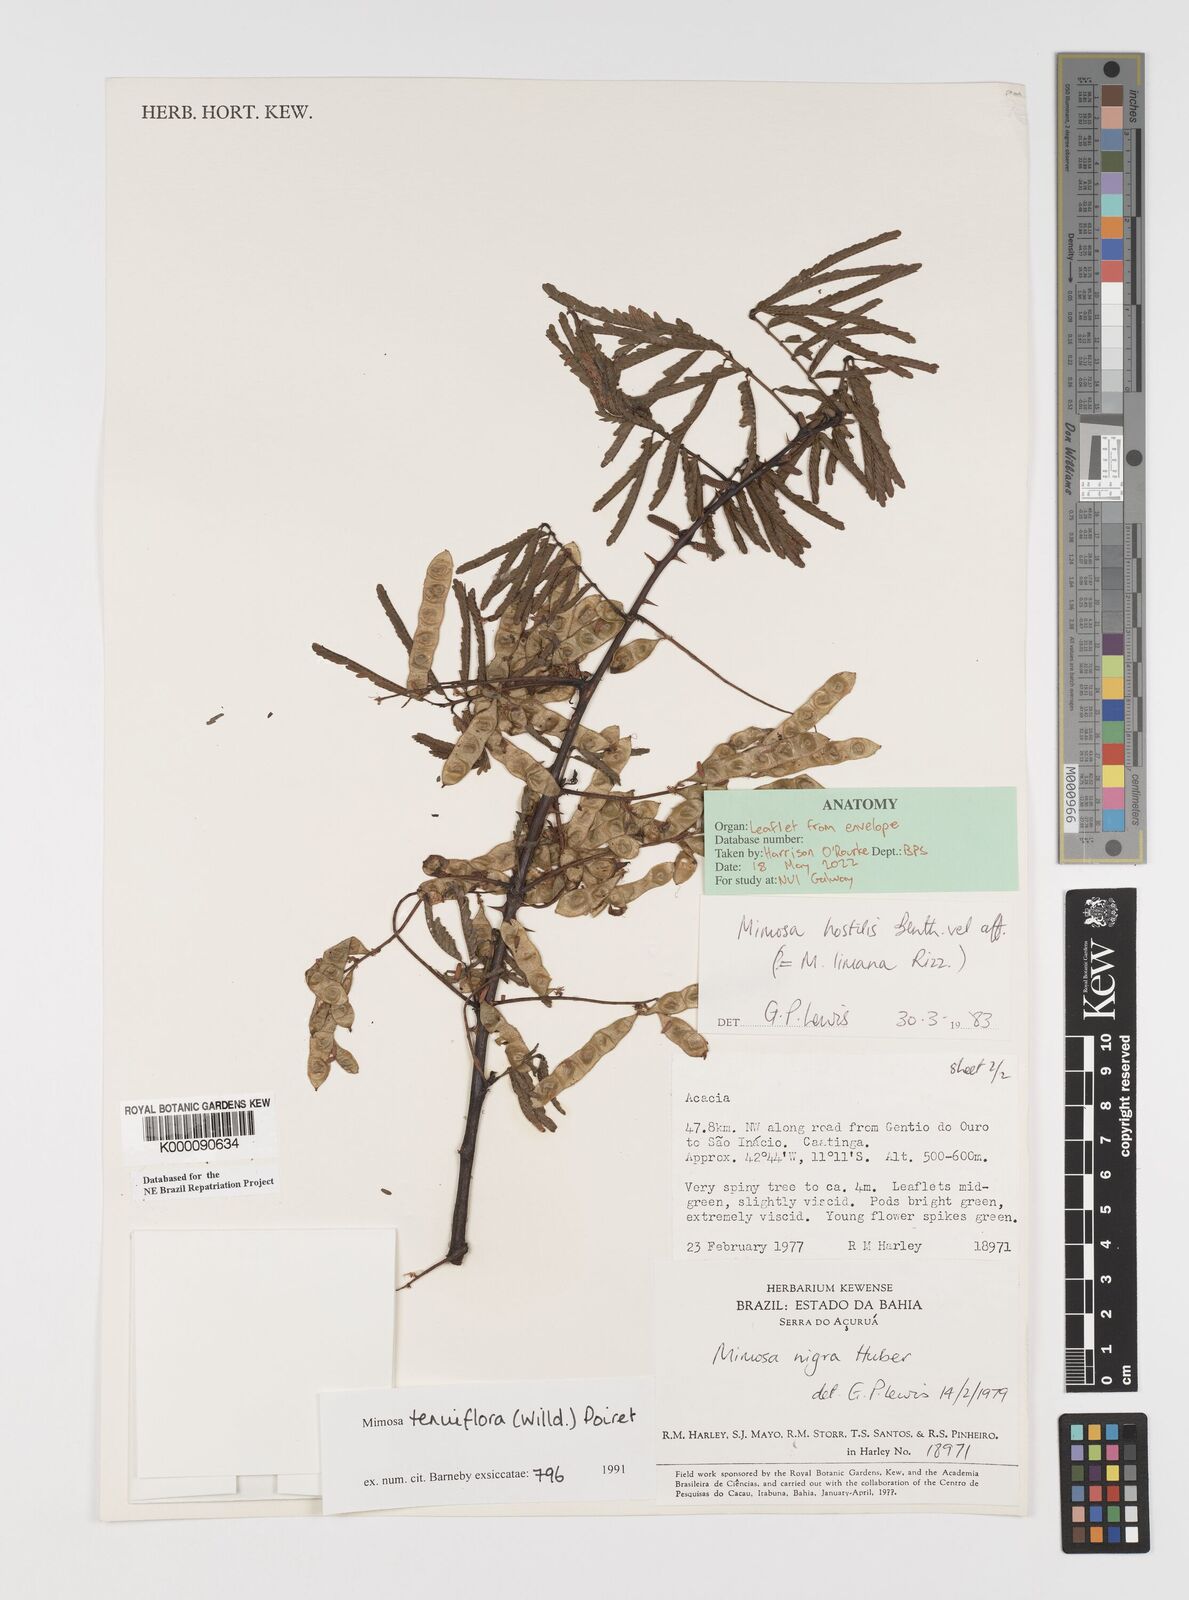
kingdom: Plantae
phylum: Tracheophyta
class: Magnoliopsida
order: Fabales
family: Fabaceae
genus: Mimosa
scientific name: Mimosa tenuiflora
